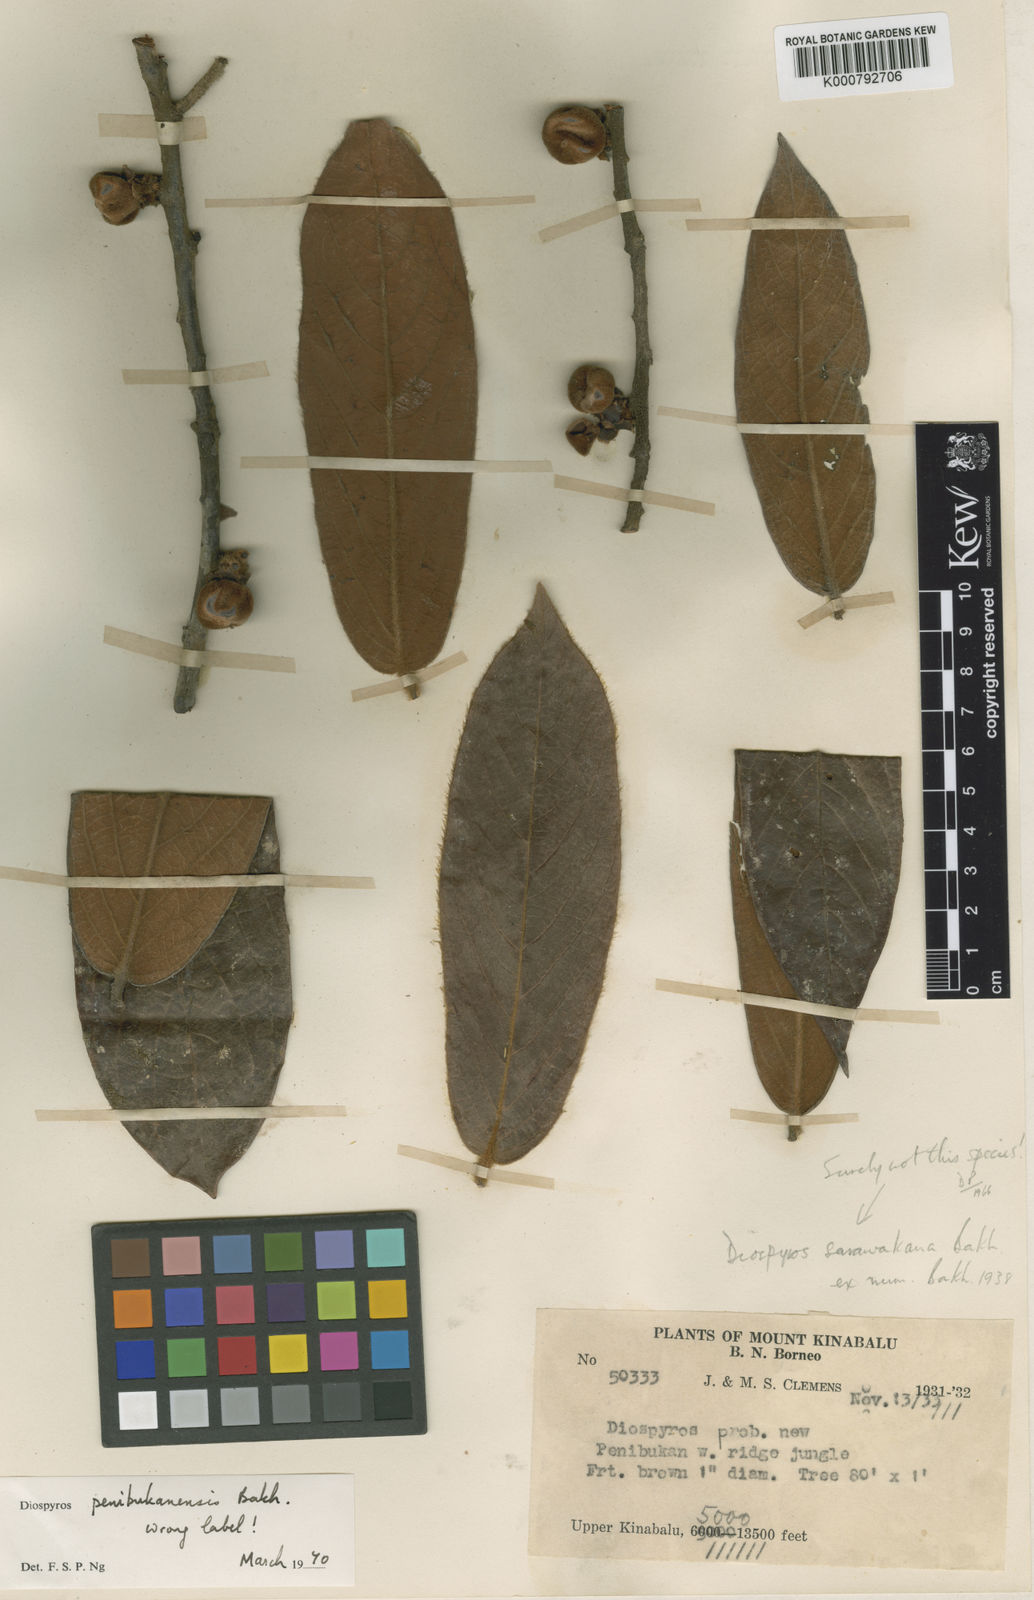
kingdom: Plantae
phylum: Tracheophyta
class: Magnoliopsida
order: Ericales
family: Ebenaceae
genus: Diospyros
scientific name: Diospyros penibukanensis
